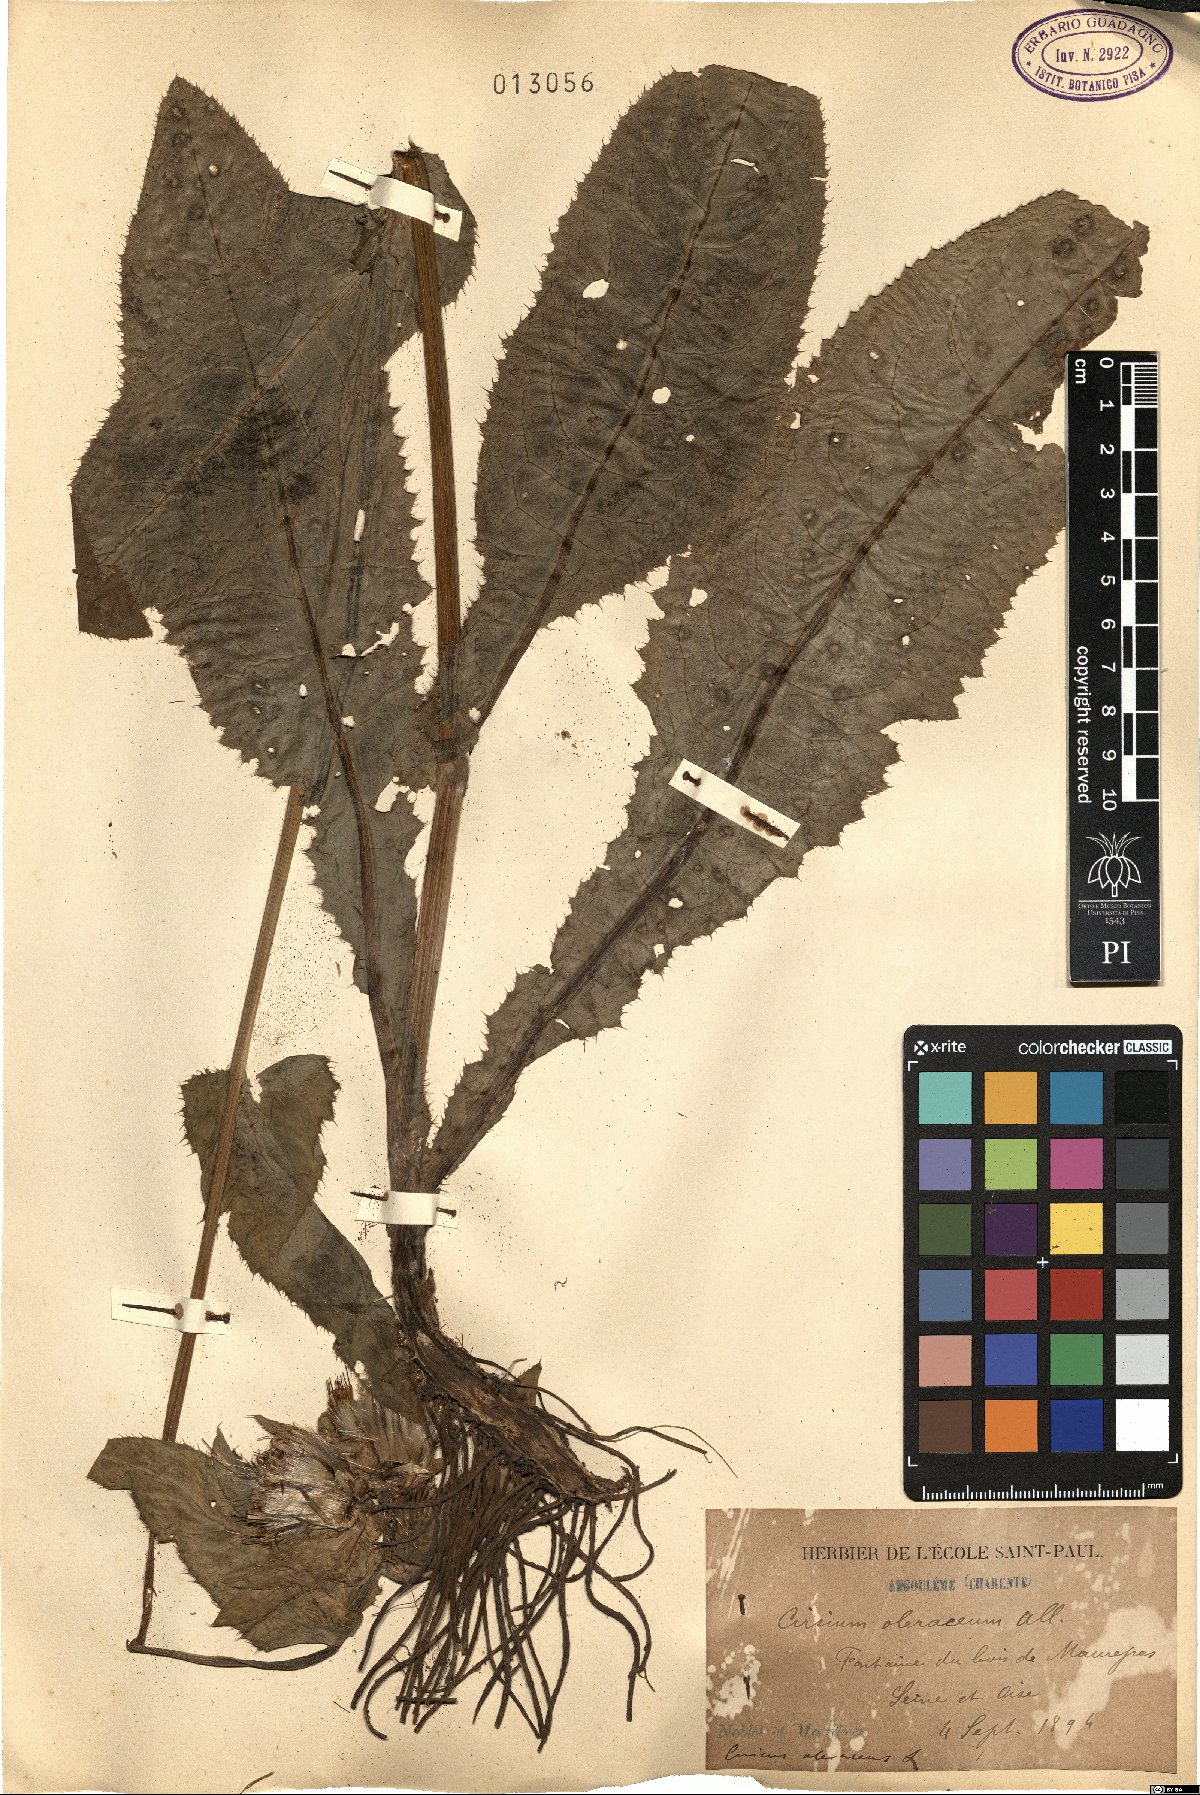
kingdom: Plantae
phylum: Tracheophyta
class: Magnoliopsida
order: Asterales
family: Asteraceae
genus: Cirsium
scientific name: Cirsium oleraceum
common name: Cabbage thistle
